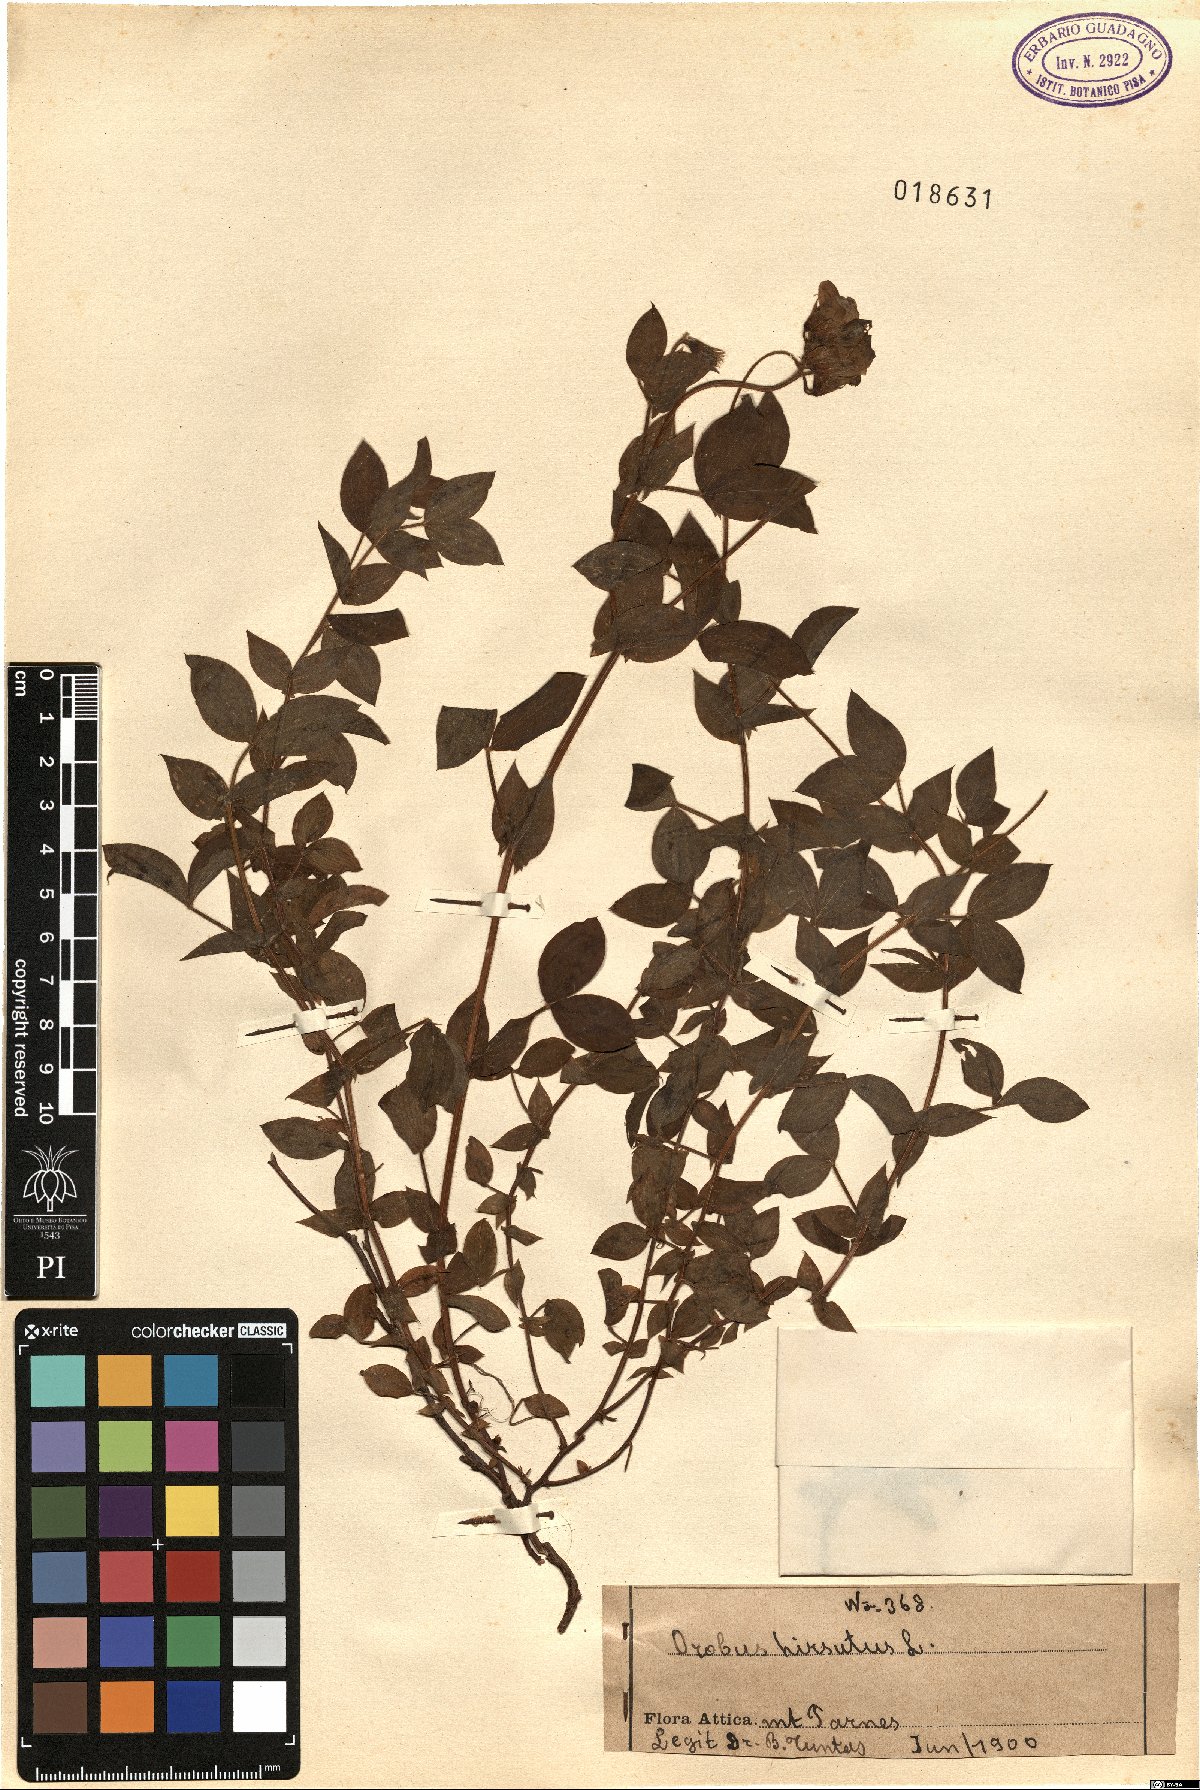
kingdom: Plantae
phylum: Tracheophyta
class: Magnoliopsida
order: Fabales
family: Fabaceae
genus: Lathyrus
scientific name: Lathyrus laxiflorus
